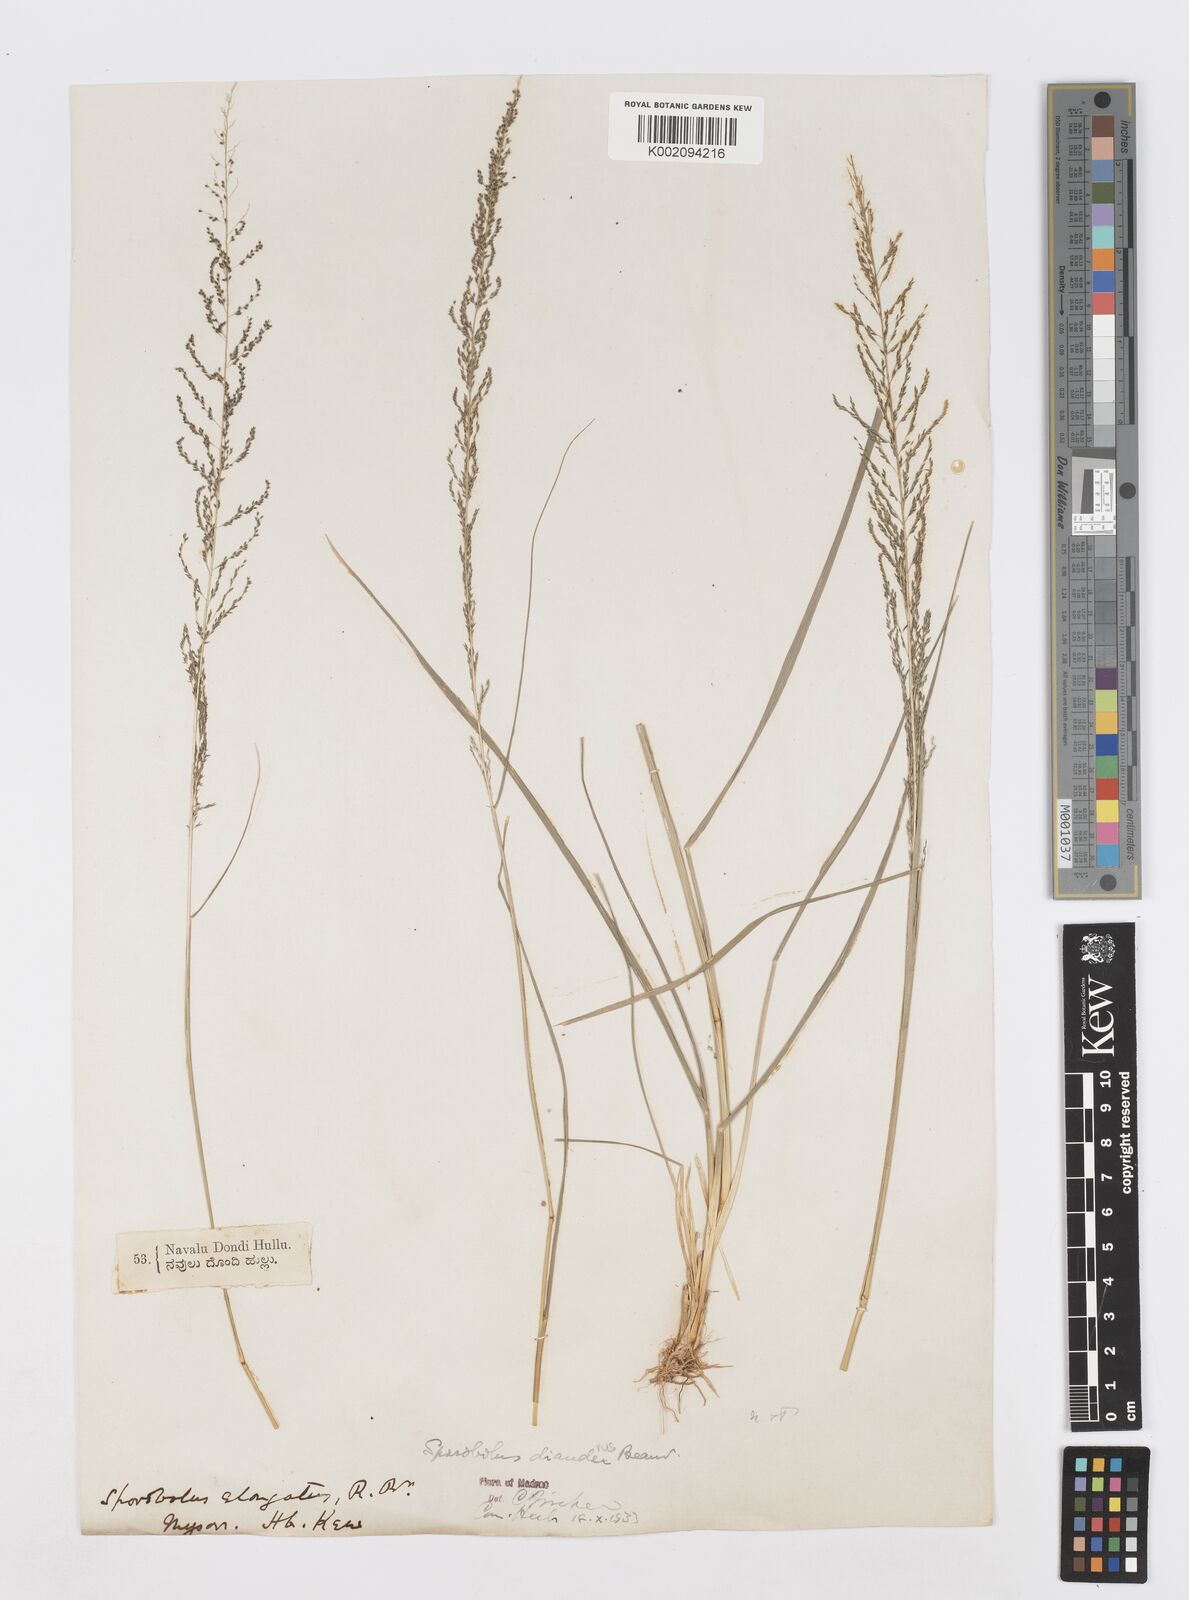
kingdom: Plantae
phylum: Tracheophyta
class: Liliopsida
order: Poales
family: Poaceae
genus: Sporobolus
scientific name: Sporobolus diandrus
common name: Tussock dropseed
